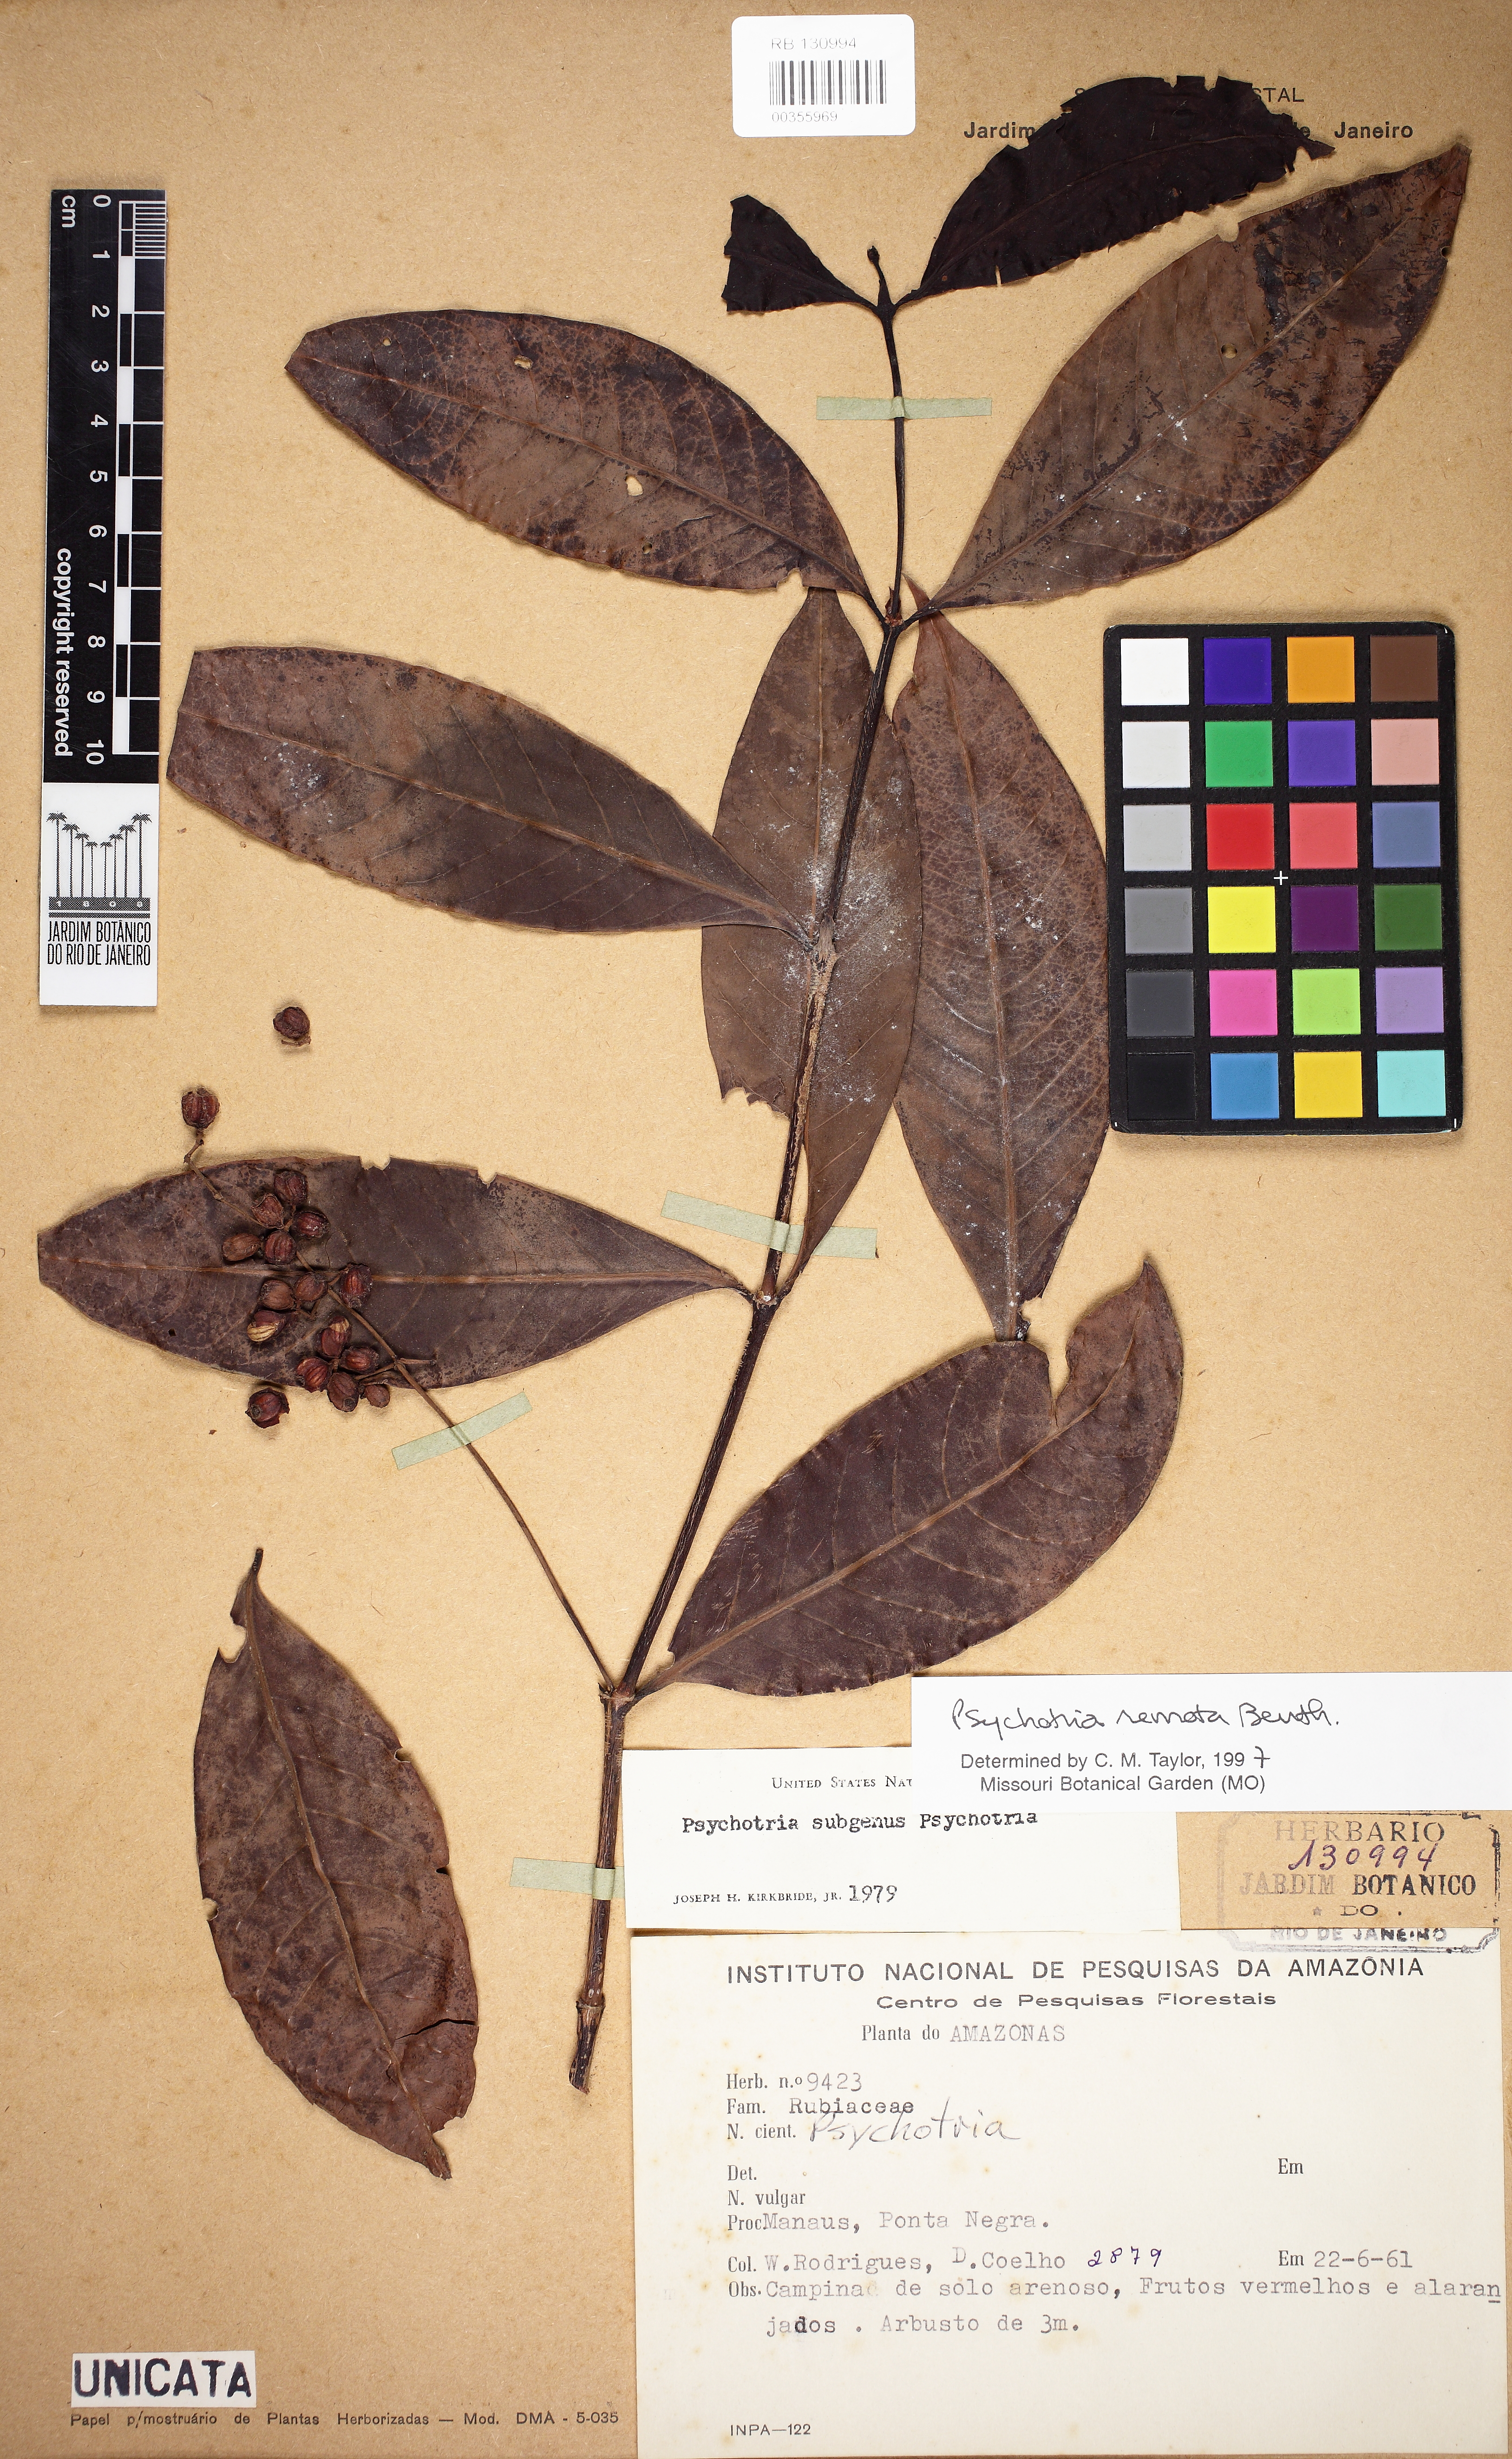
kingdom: Plantae
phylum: Tracheophyta
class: Magnoliopsida
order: Gentianales
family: Rubiaceae
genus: Psychotria
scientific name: Psychotria remota
